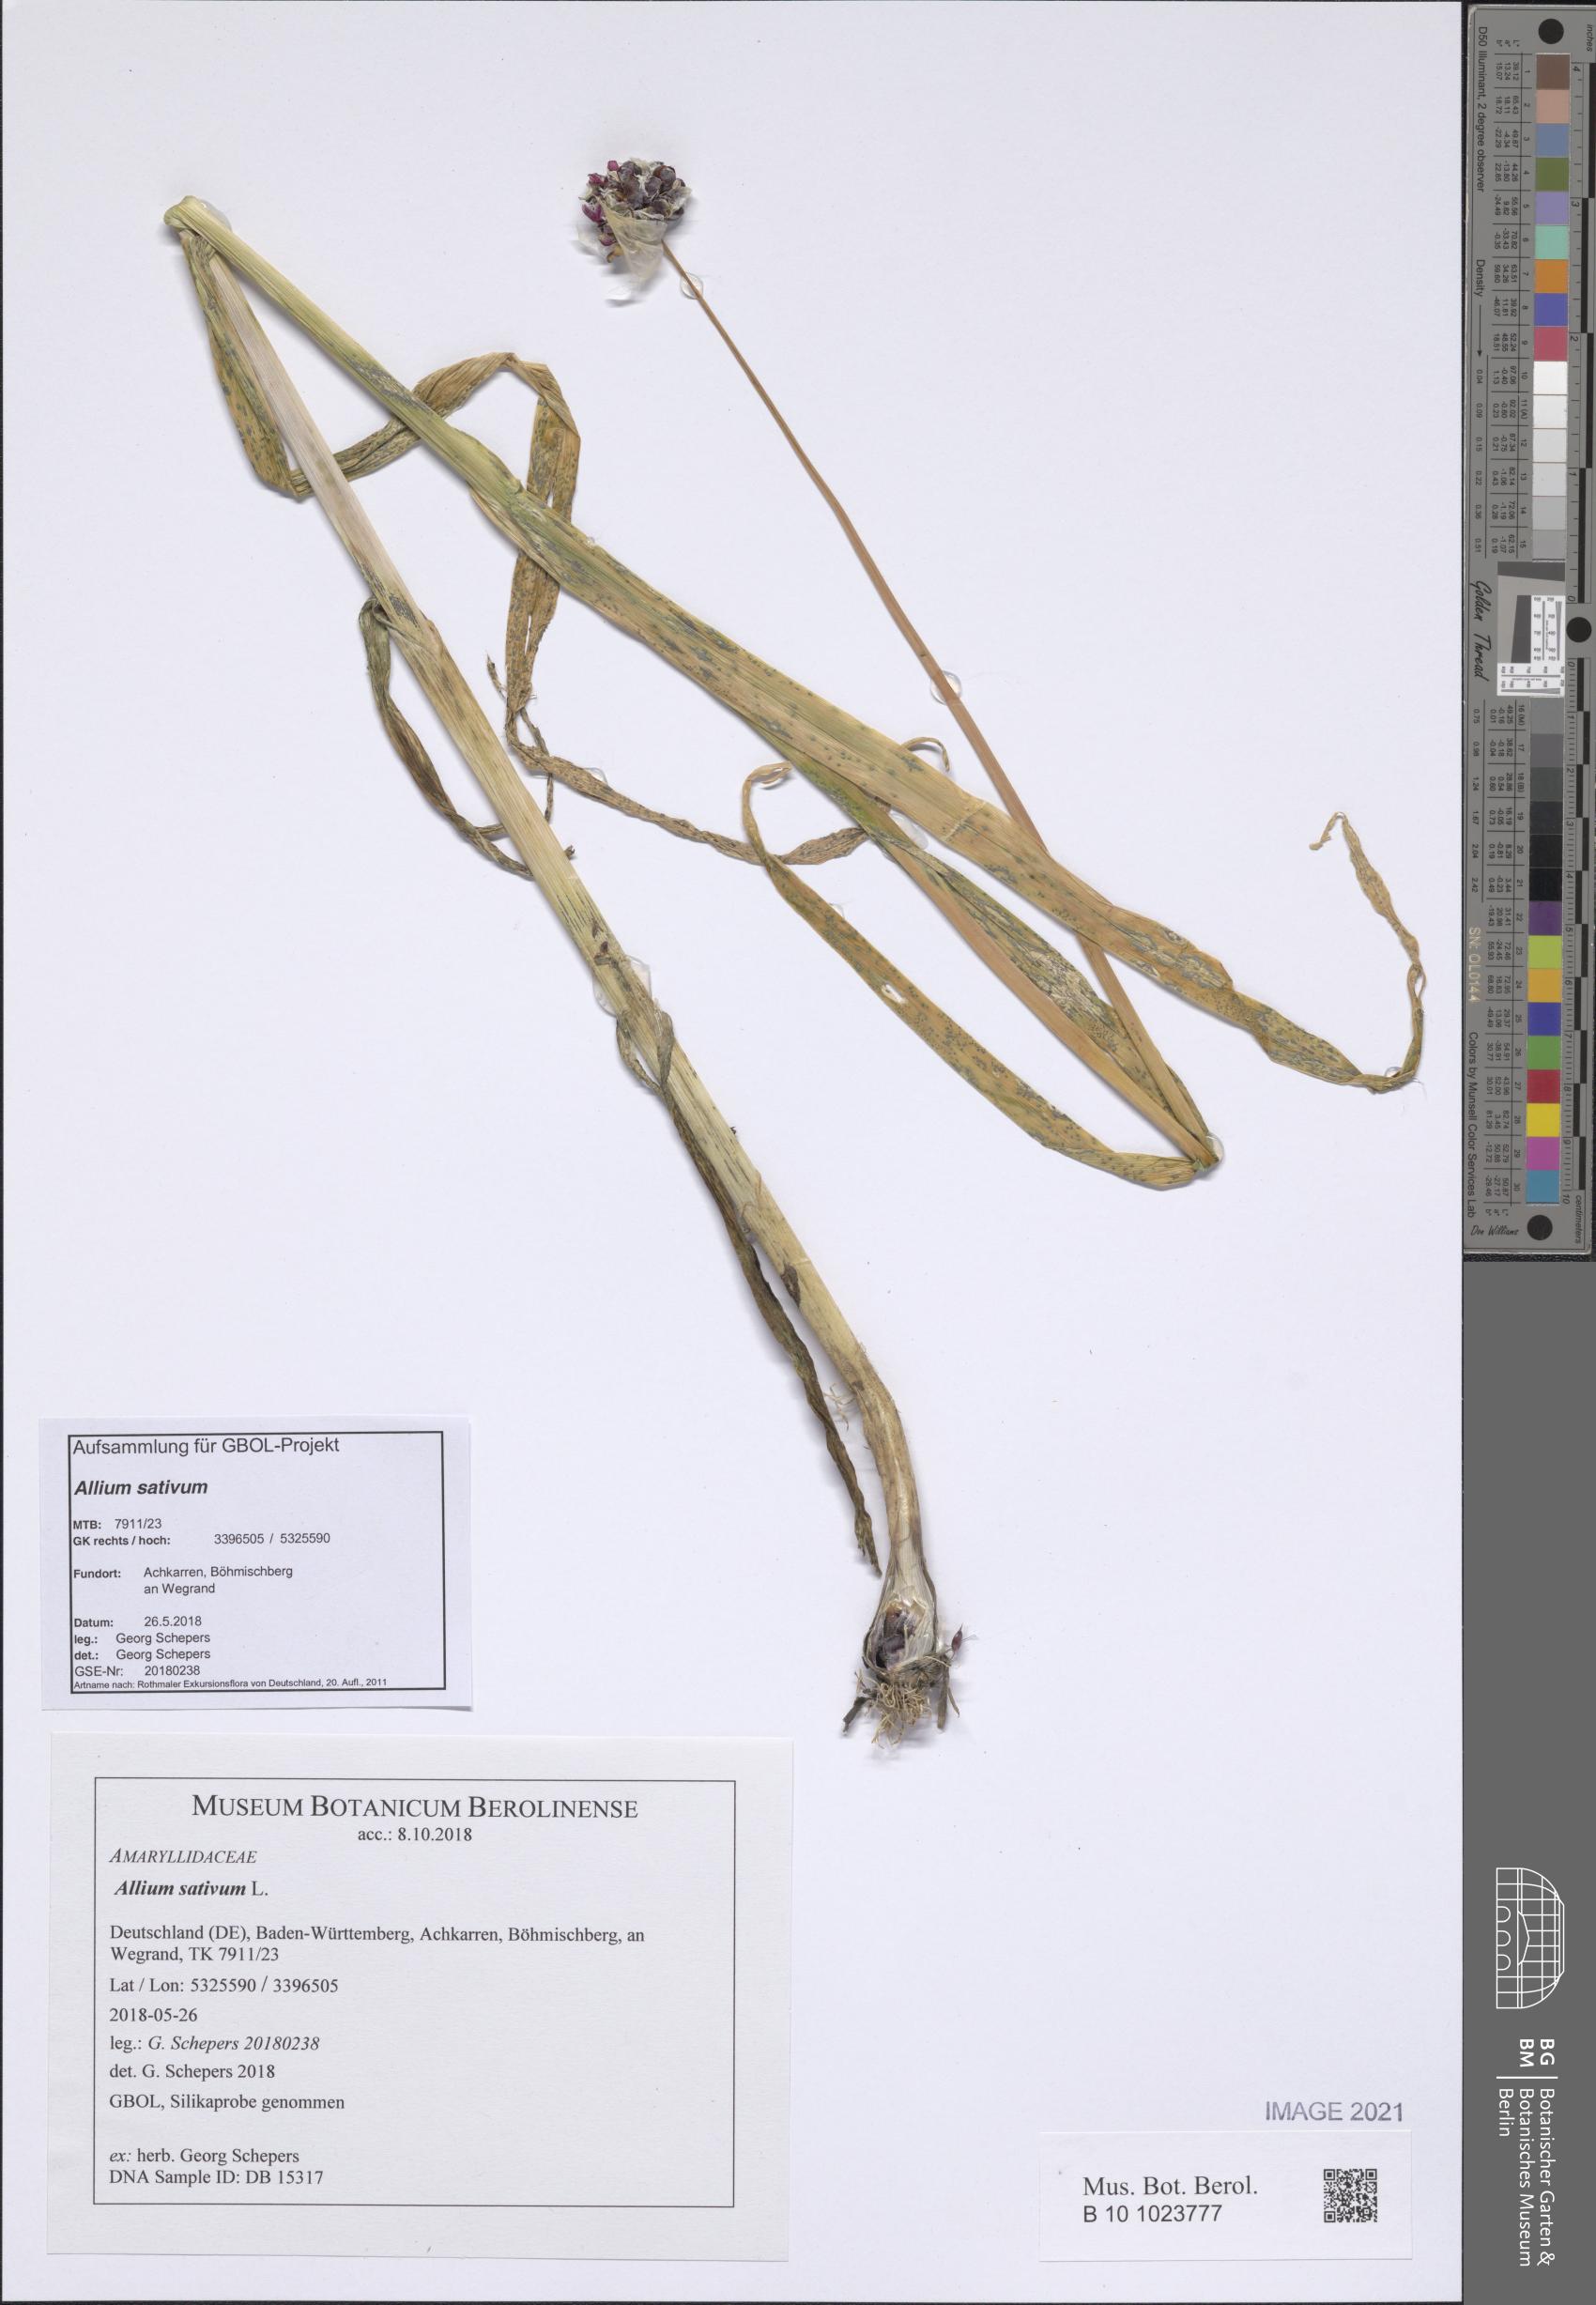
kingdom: Plantae
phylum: Tracheophyta
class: Liliopsida
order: Asparagales
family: Amaryllidaceae
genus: Allium
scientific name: Allium sativum
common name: Garlic
